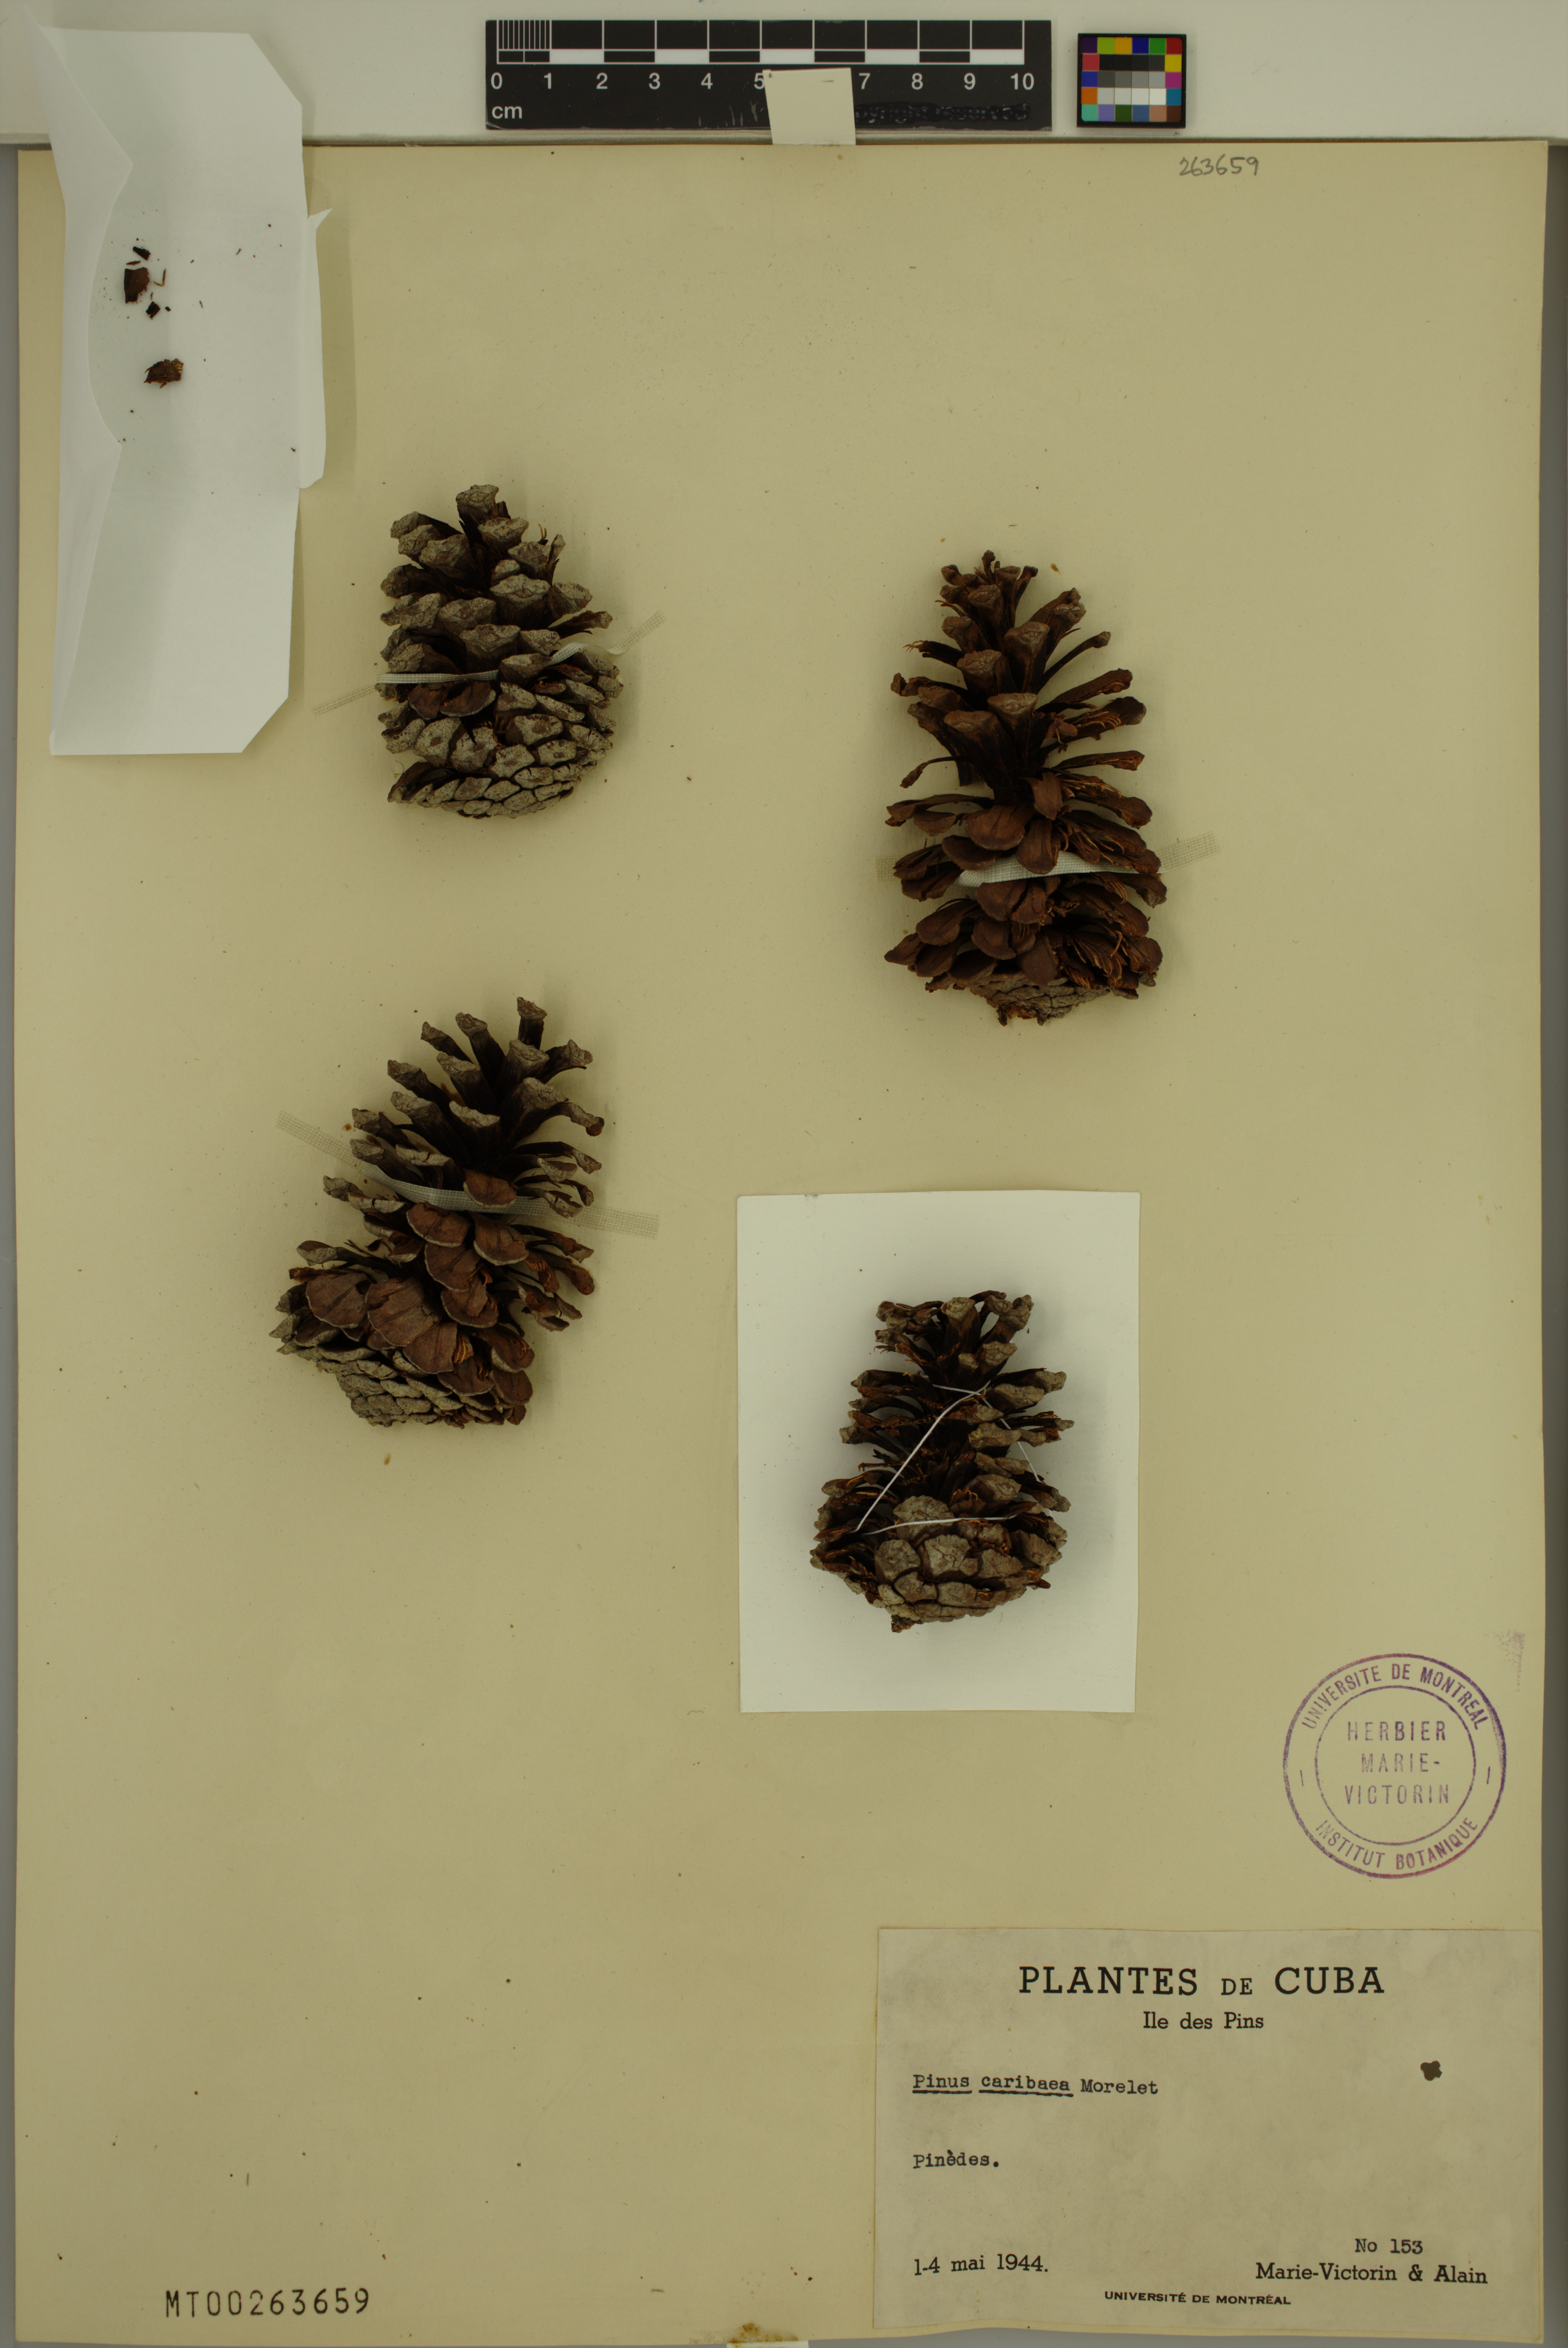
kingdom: Plantae
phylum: Tracheophyta
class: Pinopsida
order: Pinales
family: Pinaceae
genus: Pinus
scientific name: Pinus caribaea
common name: Caribbean pine
